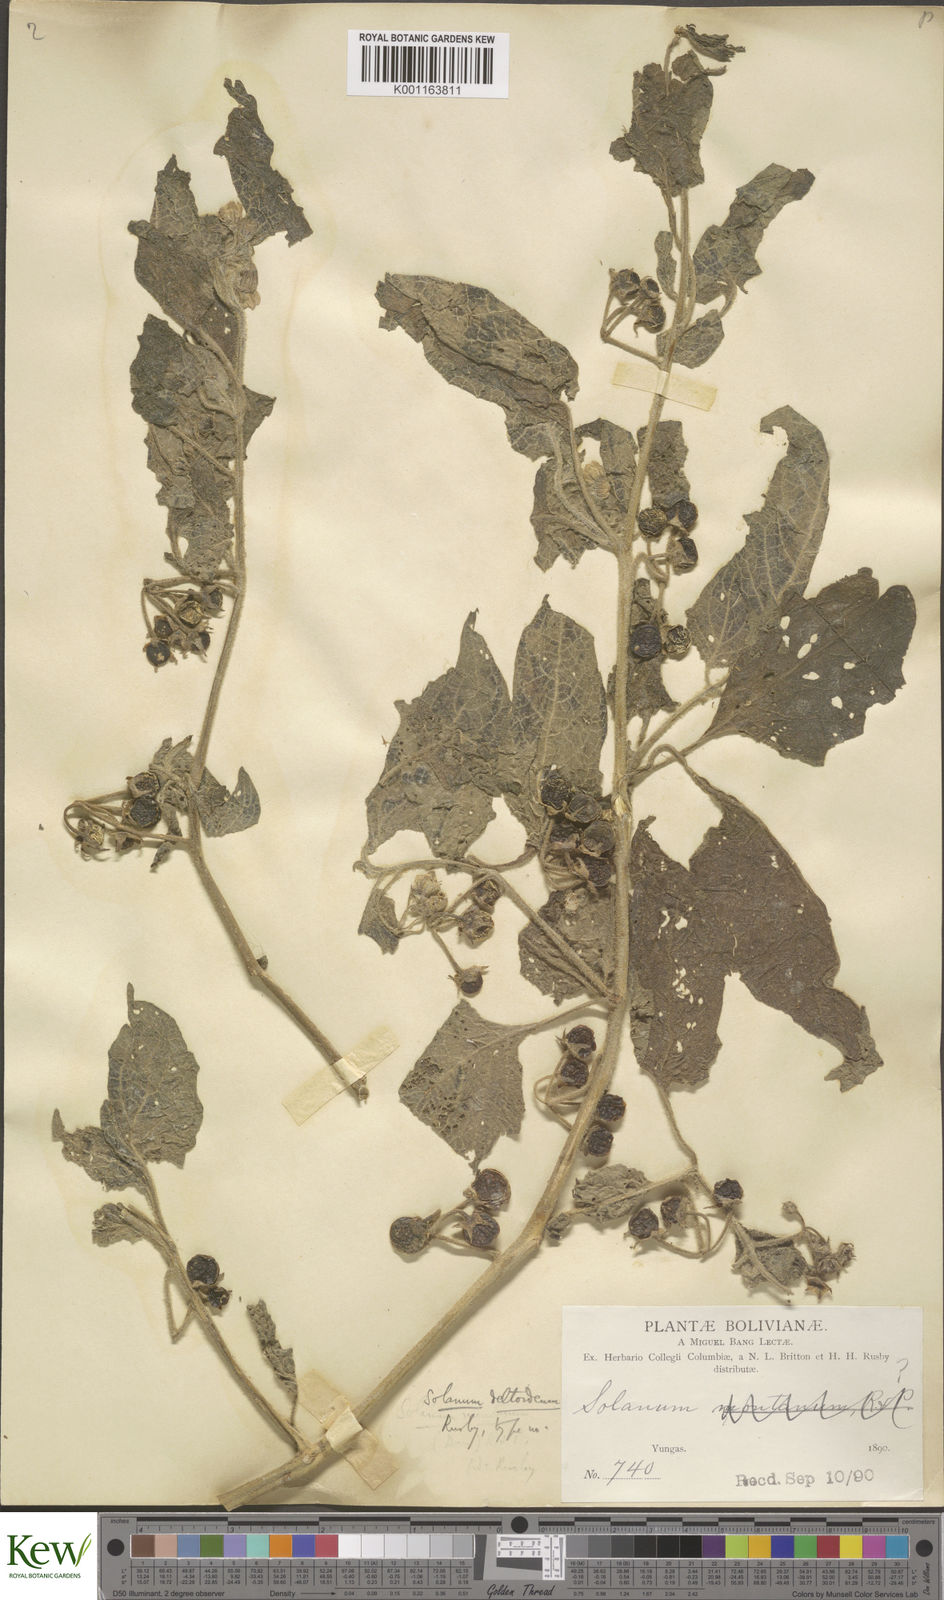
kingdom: Plantae
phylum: Tracheophyta
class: Magnoliopsida
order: Solanales
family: Solanaceae
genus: Solanum
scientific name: Solanum sinuatiexcisum
